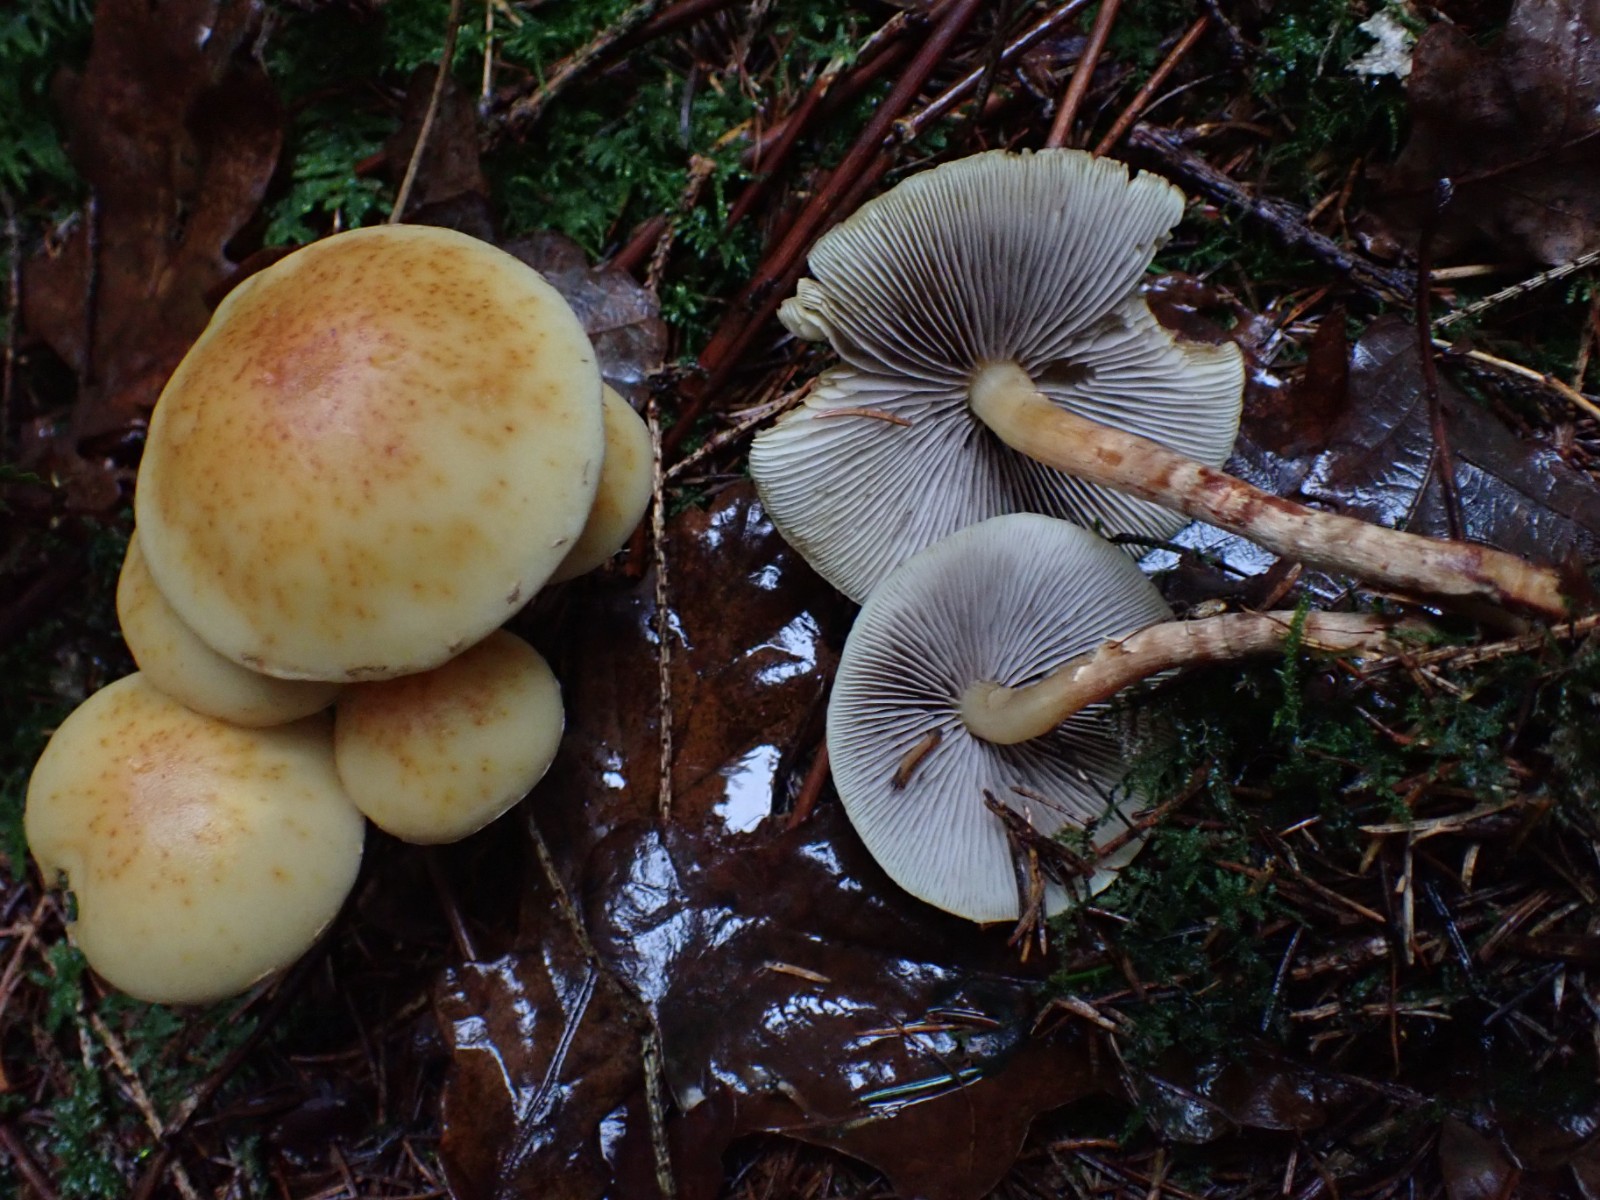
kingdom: Fungi
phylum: Basidiomycota
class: Agaricomycetes
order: Agaricales
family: Strophariaceae
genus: Hypholoma
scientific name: Hypholoma capnoides
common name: gran-svovlhat
